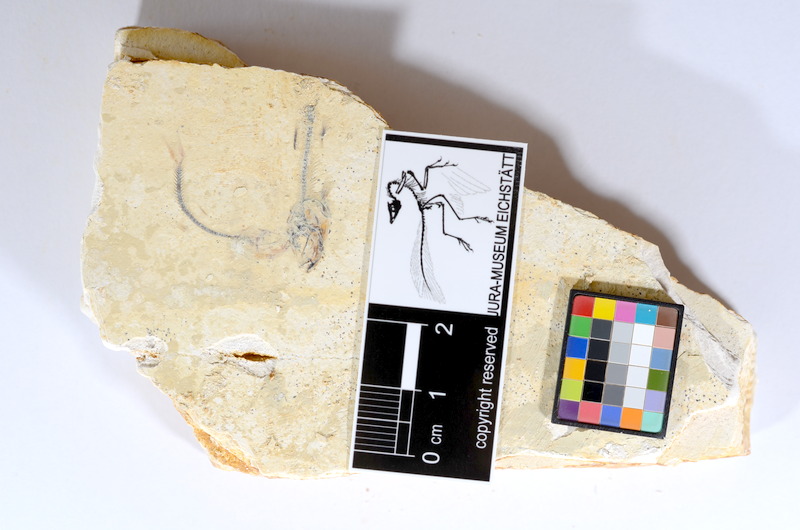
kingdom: Animalia
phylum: Chordata
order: Salmoniformes
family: Orthogonikleithridae
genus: Orthogonikleithrus
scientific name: Orthogonikleithrus hoelli
